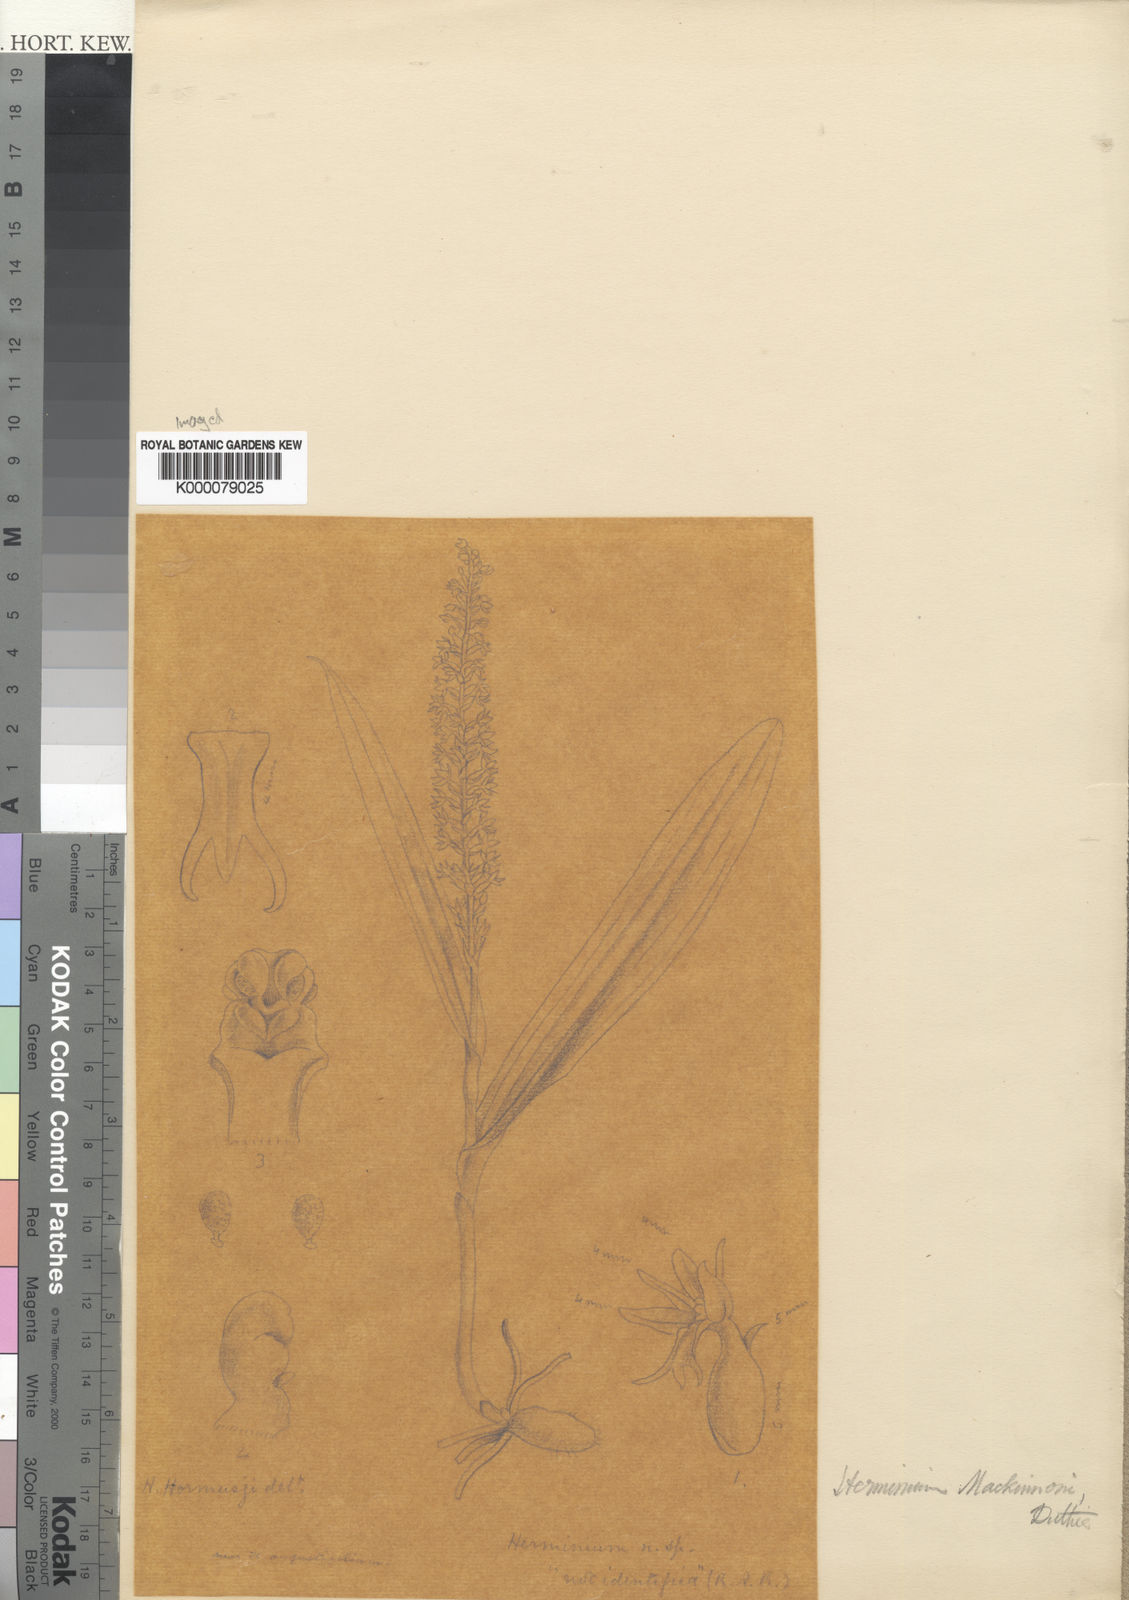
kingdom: Plantae
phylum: Tracheophyta
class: Liliopsida
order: Asparagales
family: Orchidaceae
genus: Herminium
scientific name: Herminium mackinonii
